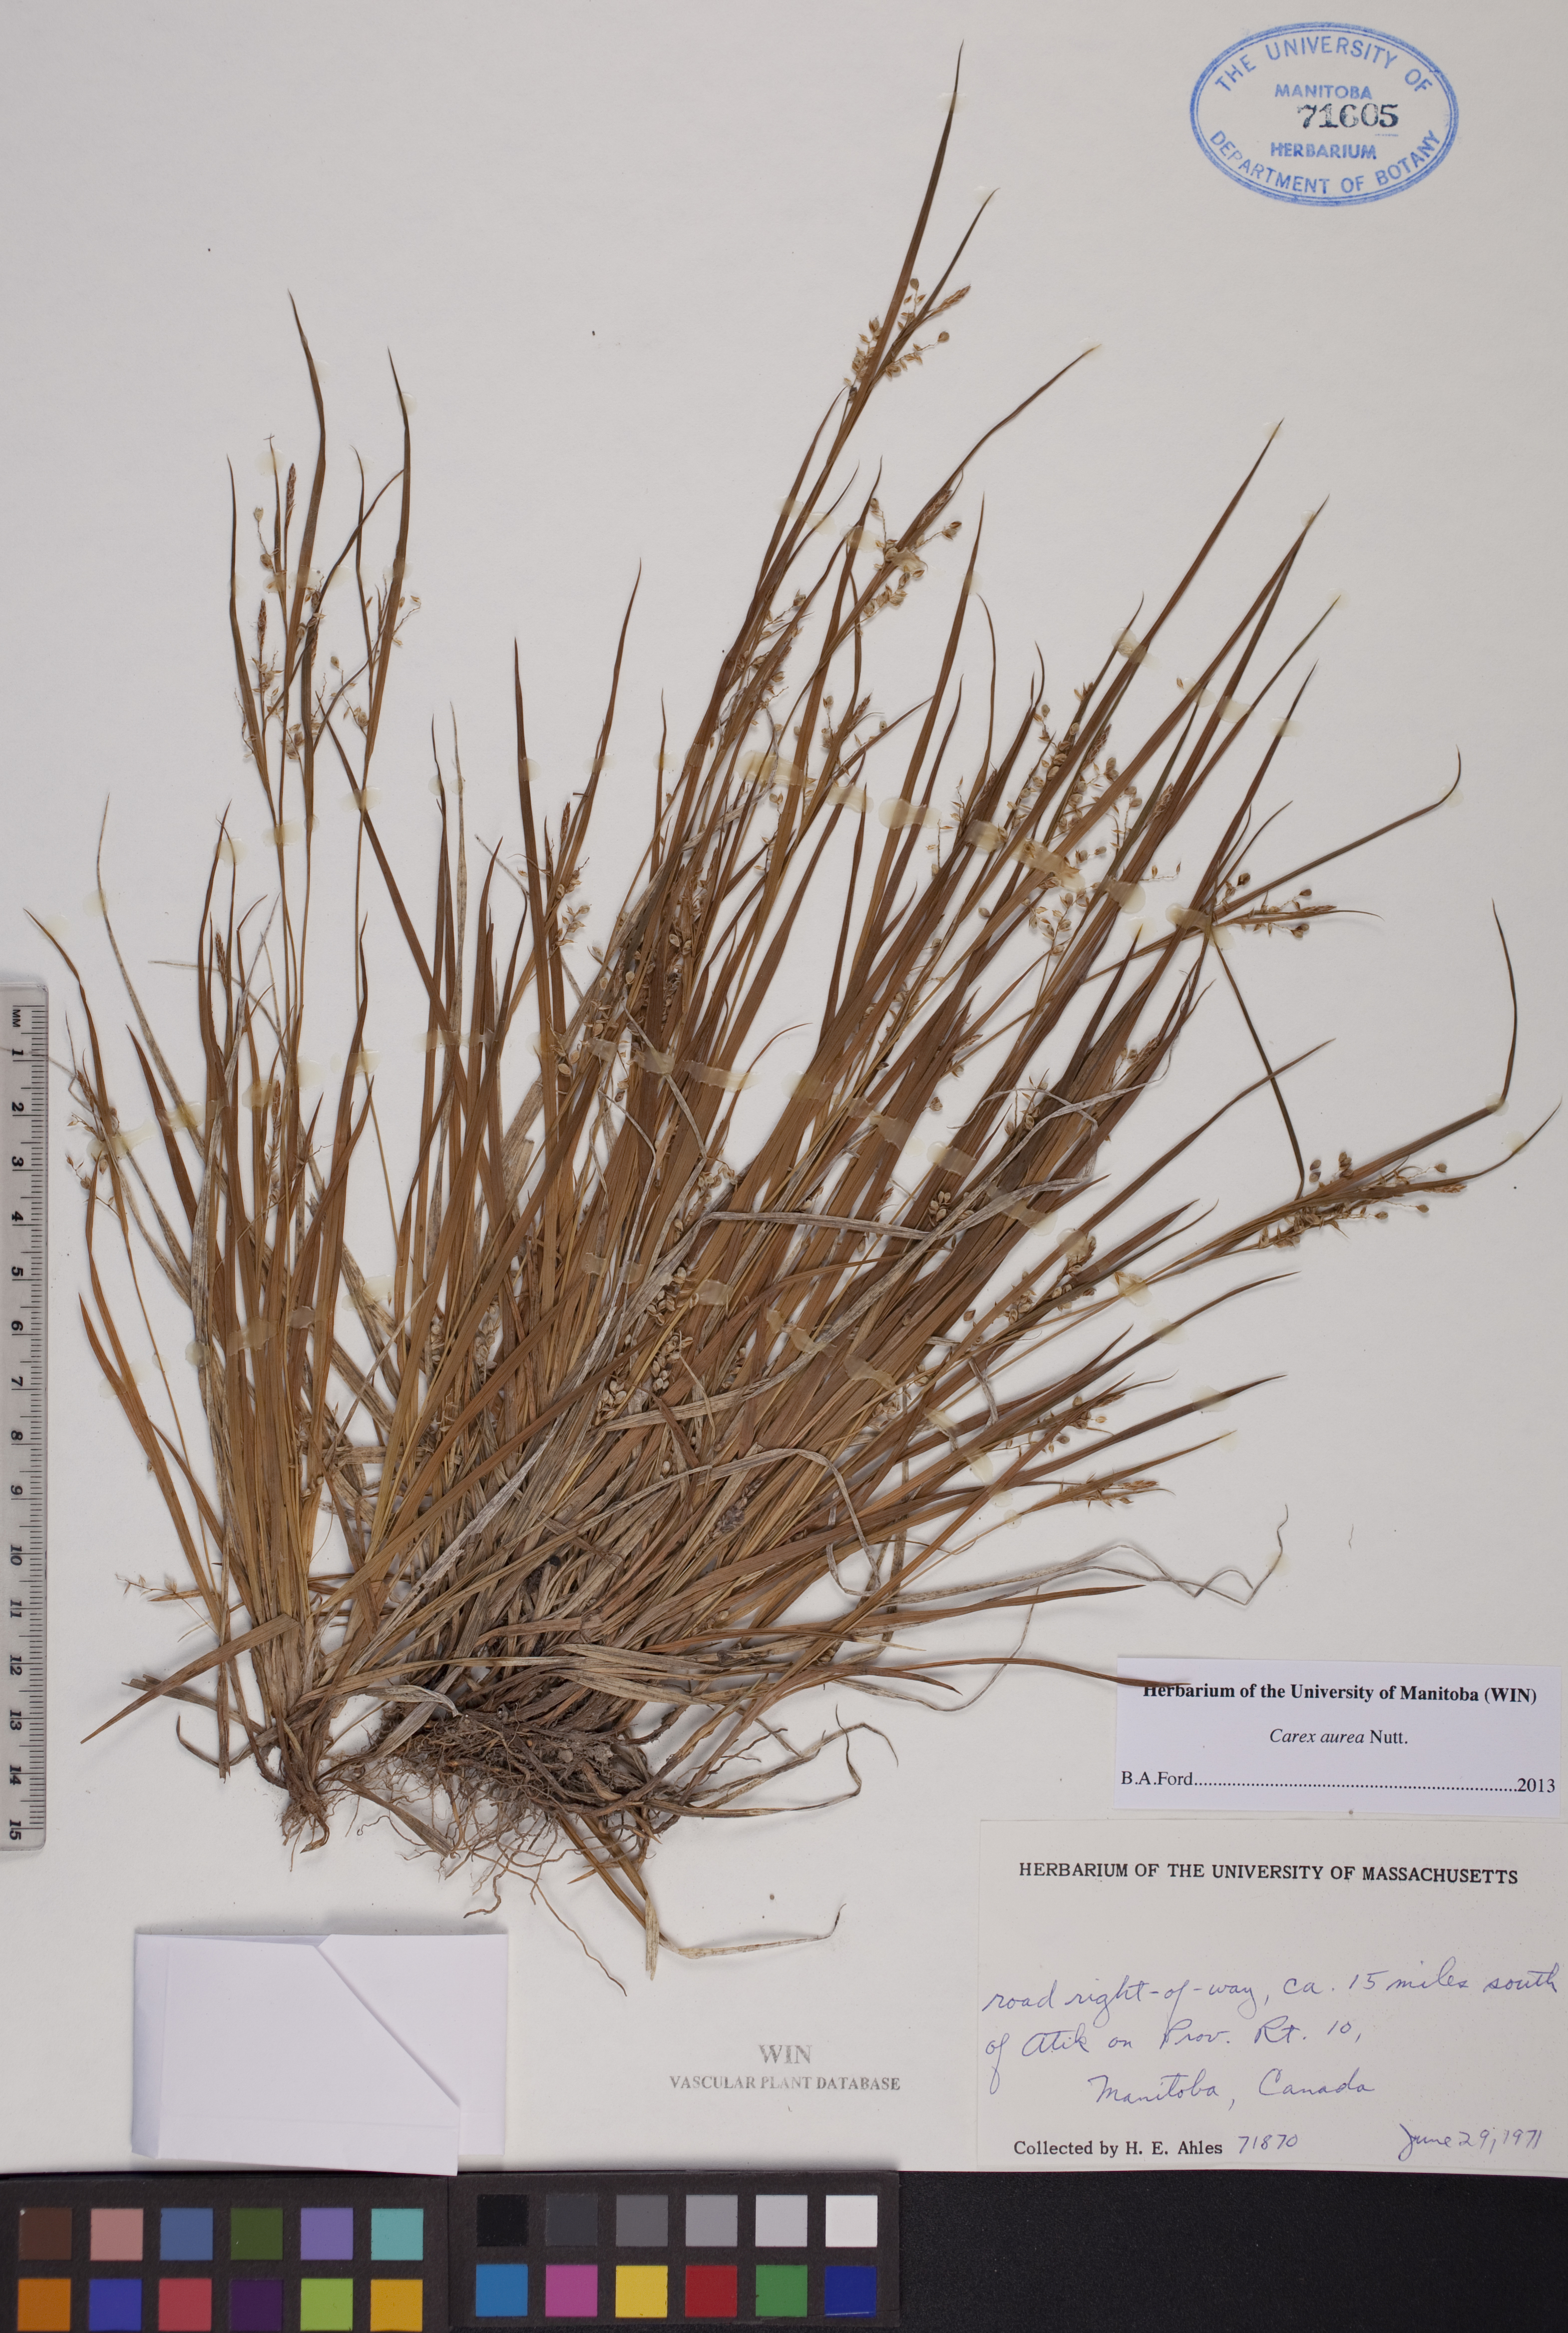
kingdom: Plantae
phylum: Tracheophyta
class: Liliopsida
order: Poales
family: Cyperaceae
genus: Carex
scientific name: Carex aurea
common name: Golden sedge
